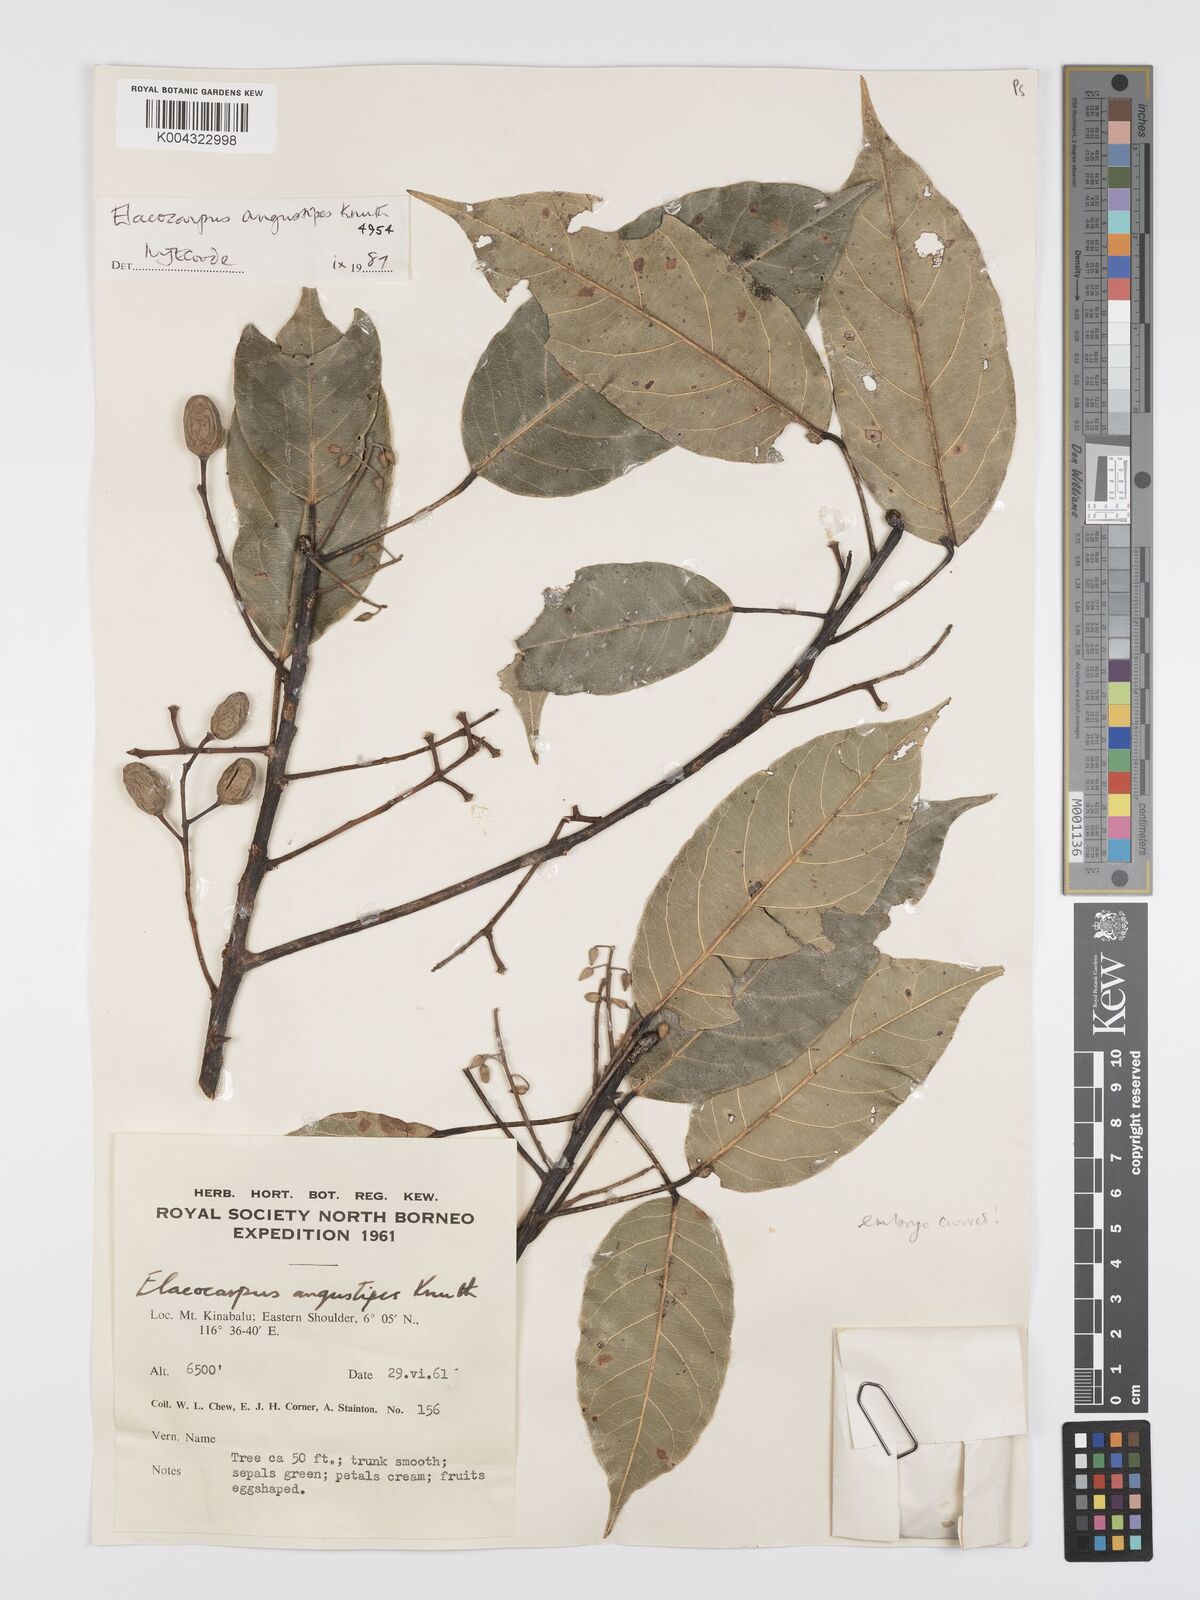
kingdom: Plantae
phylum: Tracheophyta
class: Magnoliopsida
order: Oxalidales
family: Elaeocarpaceae
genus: Elaeocarpus
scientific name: Elaeocarpus angustipes
